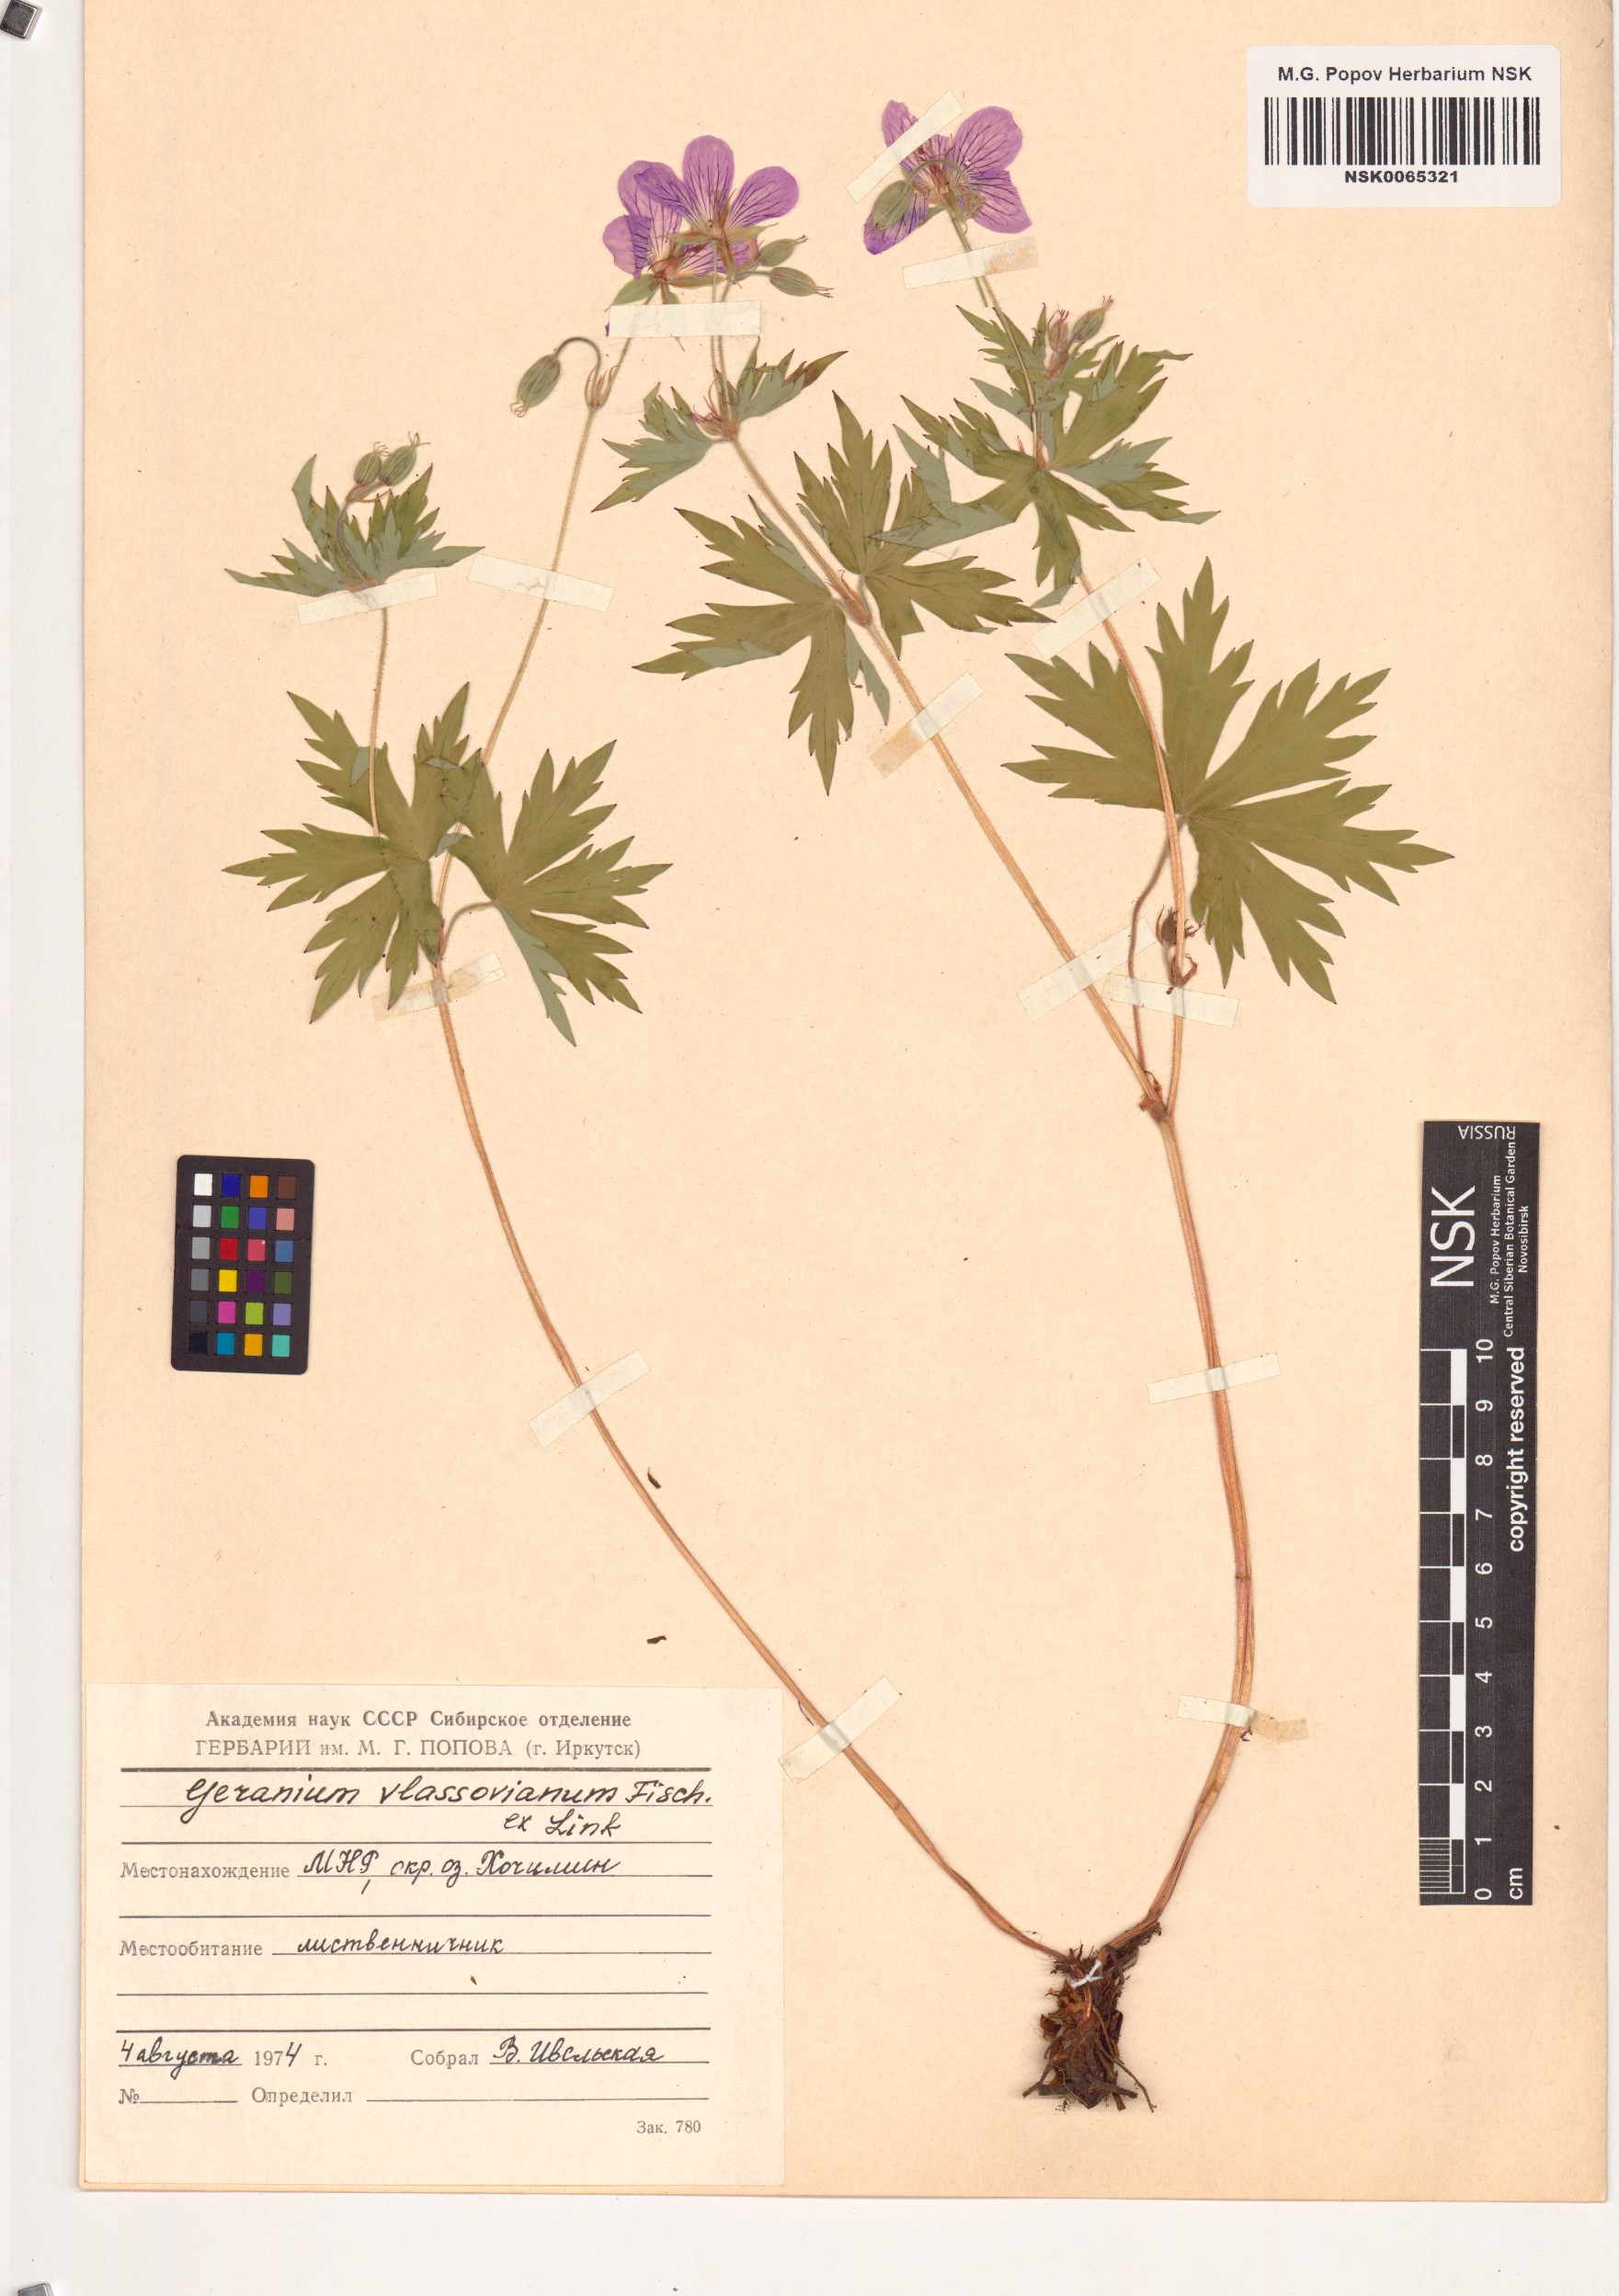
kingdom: Plantae
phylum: Tracheophyta
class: Magnoliopsida
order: Geraniales
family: Geraniaceae
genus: Geranium
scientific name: Geranium wlassovianum
